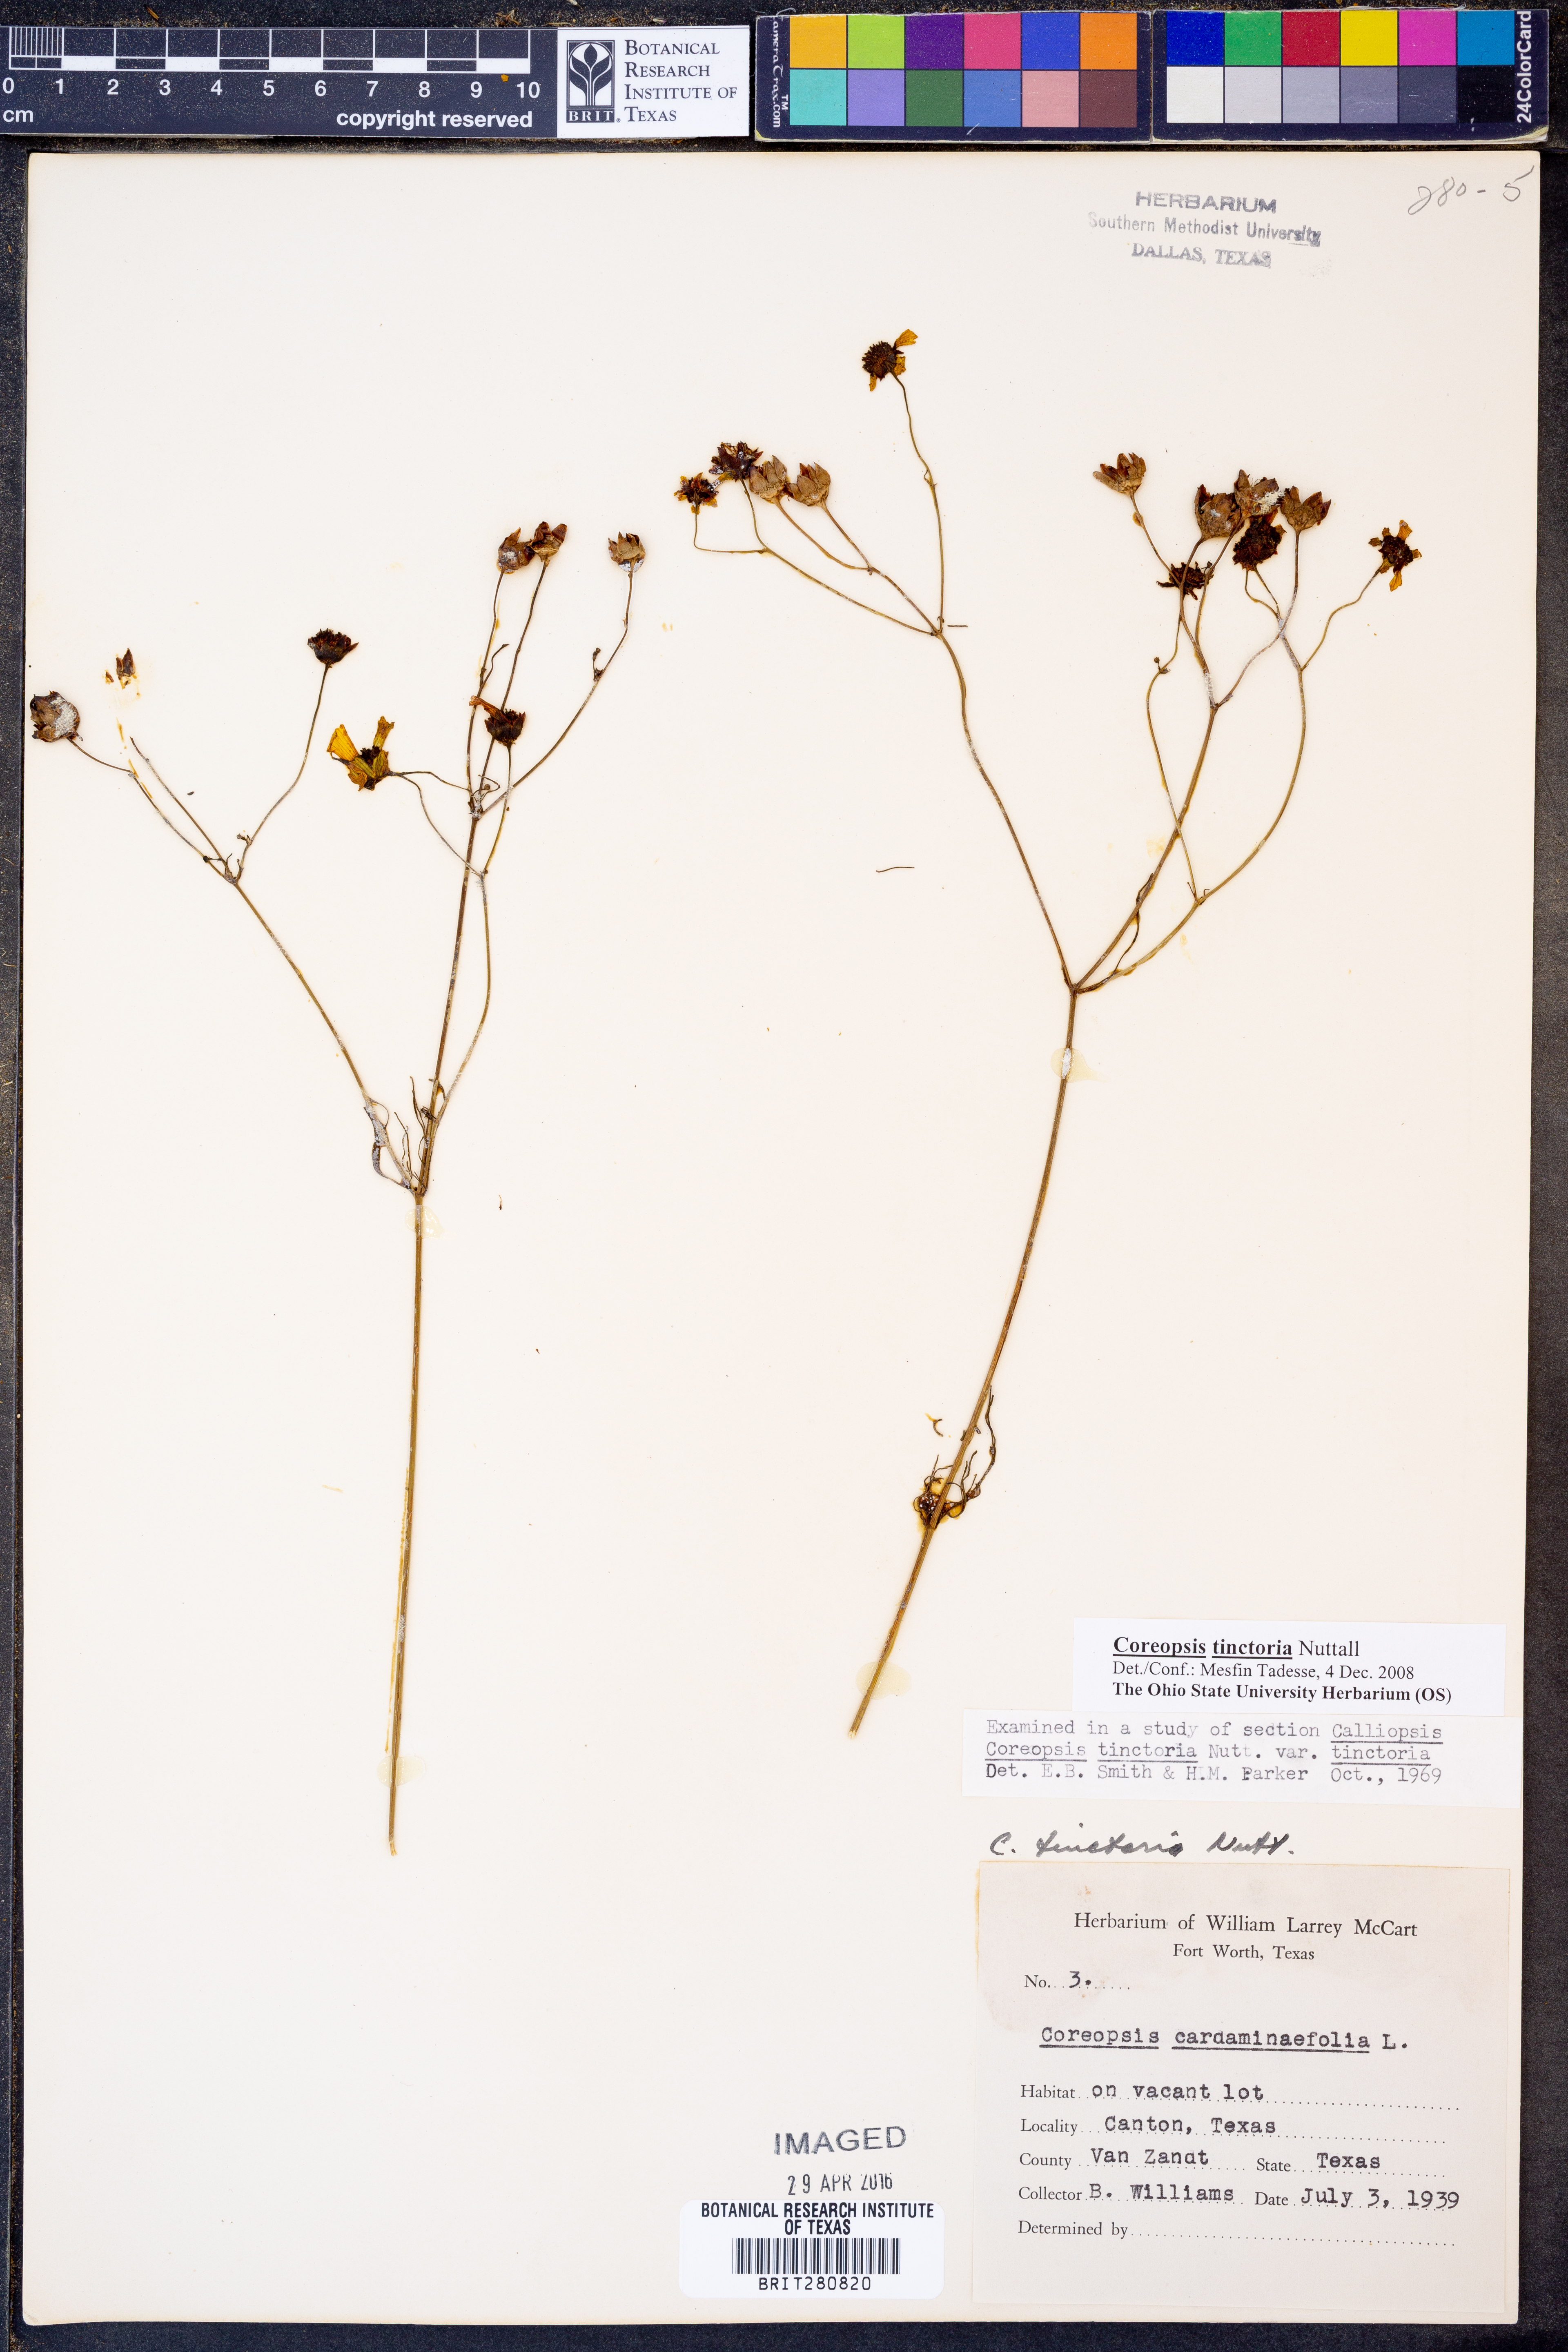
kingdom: Plantae
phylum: Tracheophyta
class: Magnoliopsida
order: Asterales
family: Asteraceae
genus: Coreopsis
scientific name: Coreopsis tinctoria
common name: Garden tickseed
